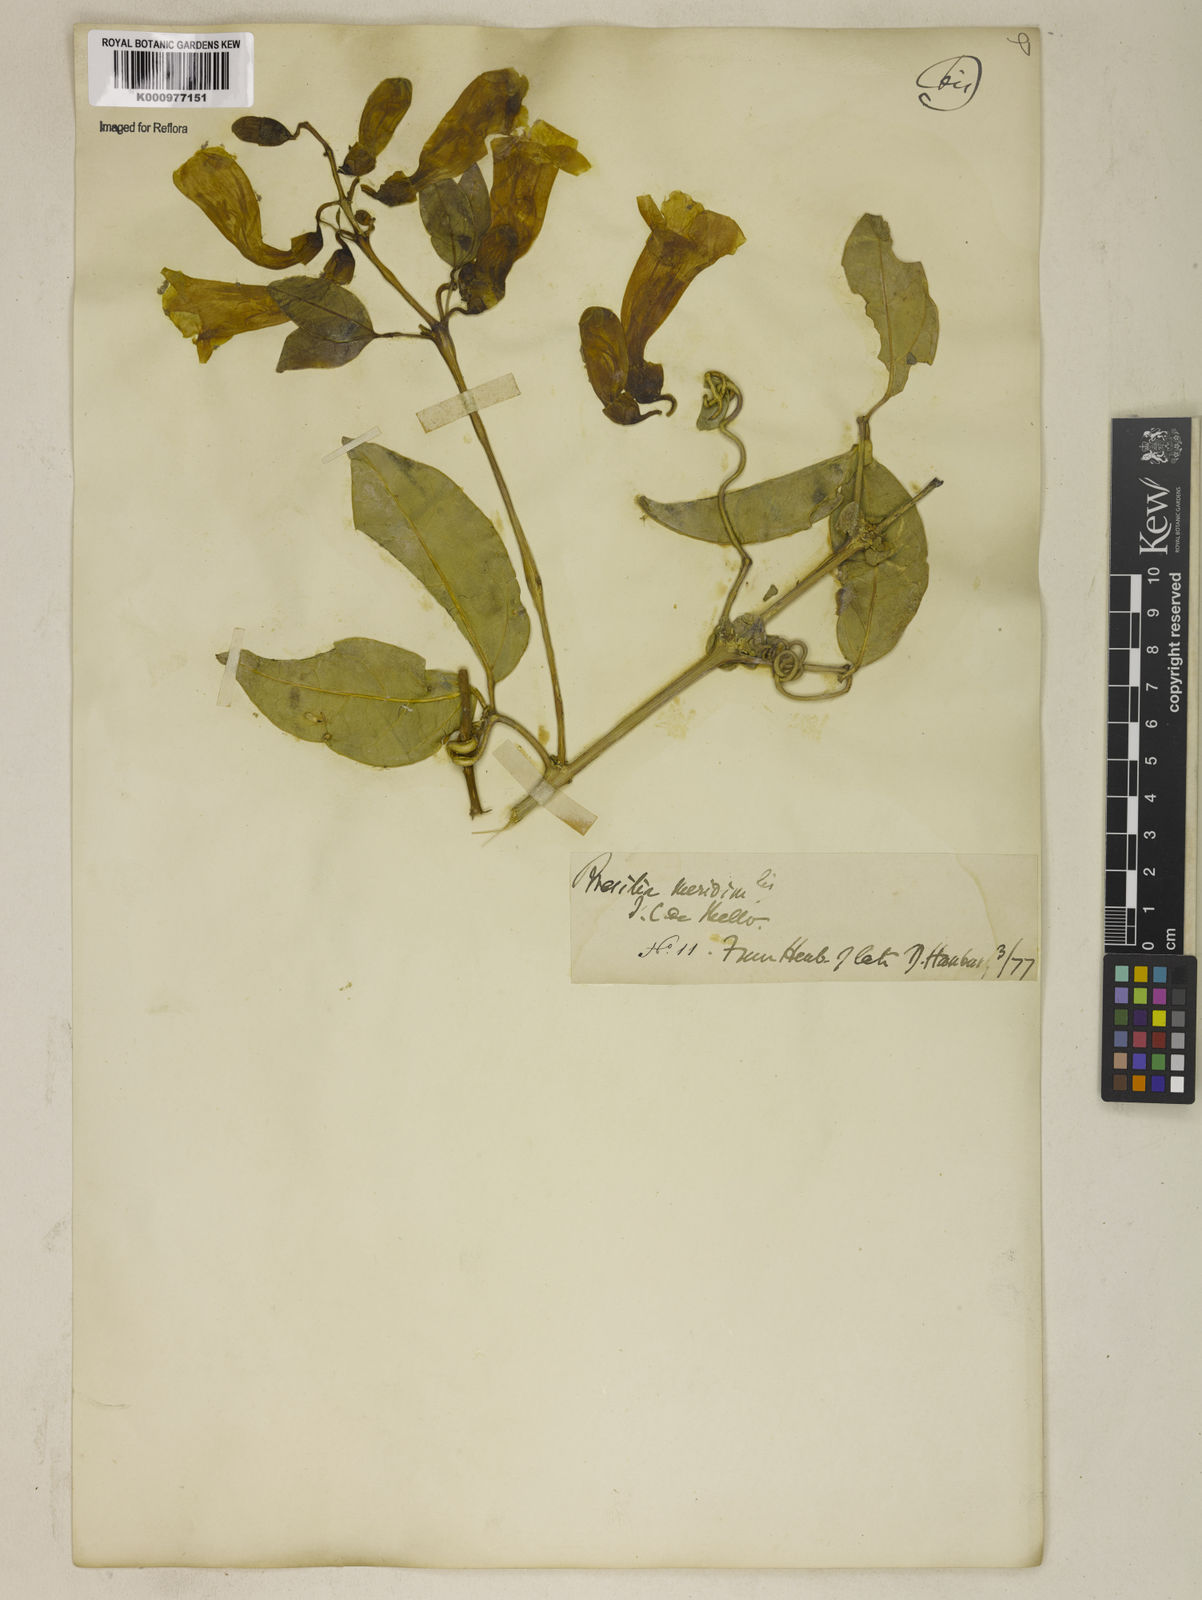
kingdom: Plantae
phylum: Tracheophyta
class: Magnoliopsida
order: Lamiales
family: Bignoniaceae
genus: Anemopaegma
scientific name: Anemopaegma chamberlaynii
